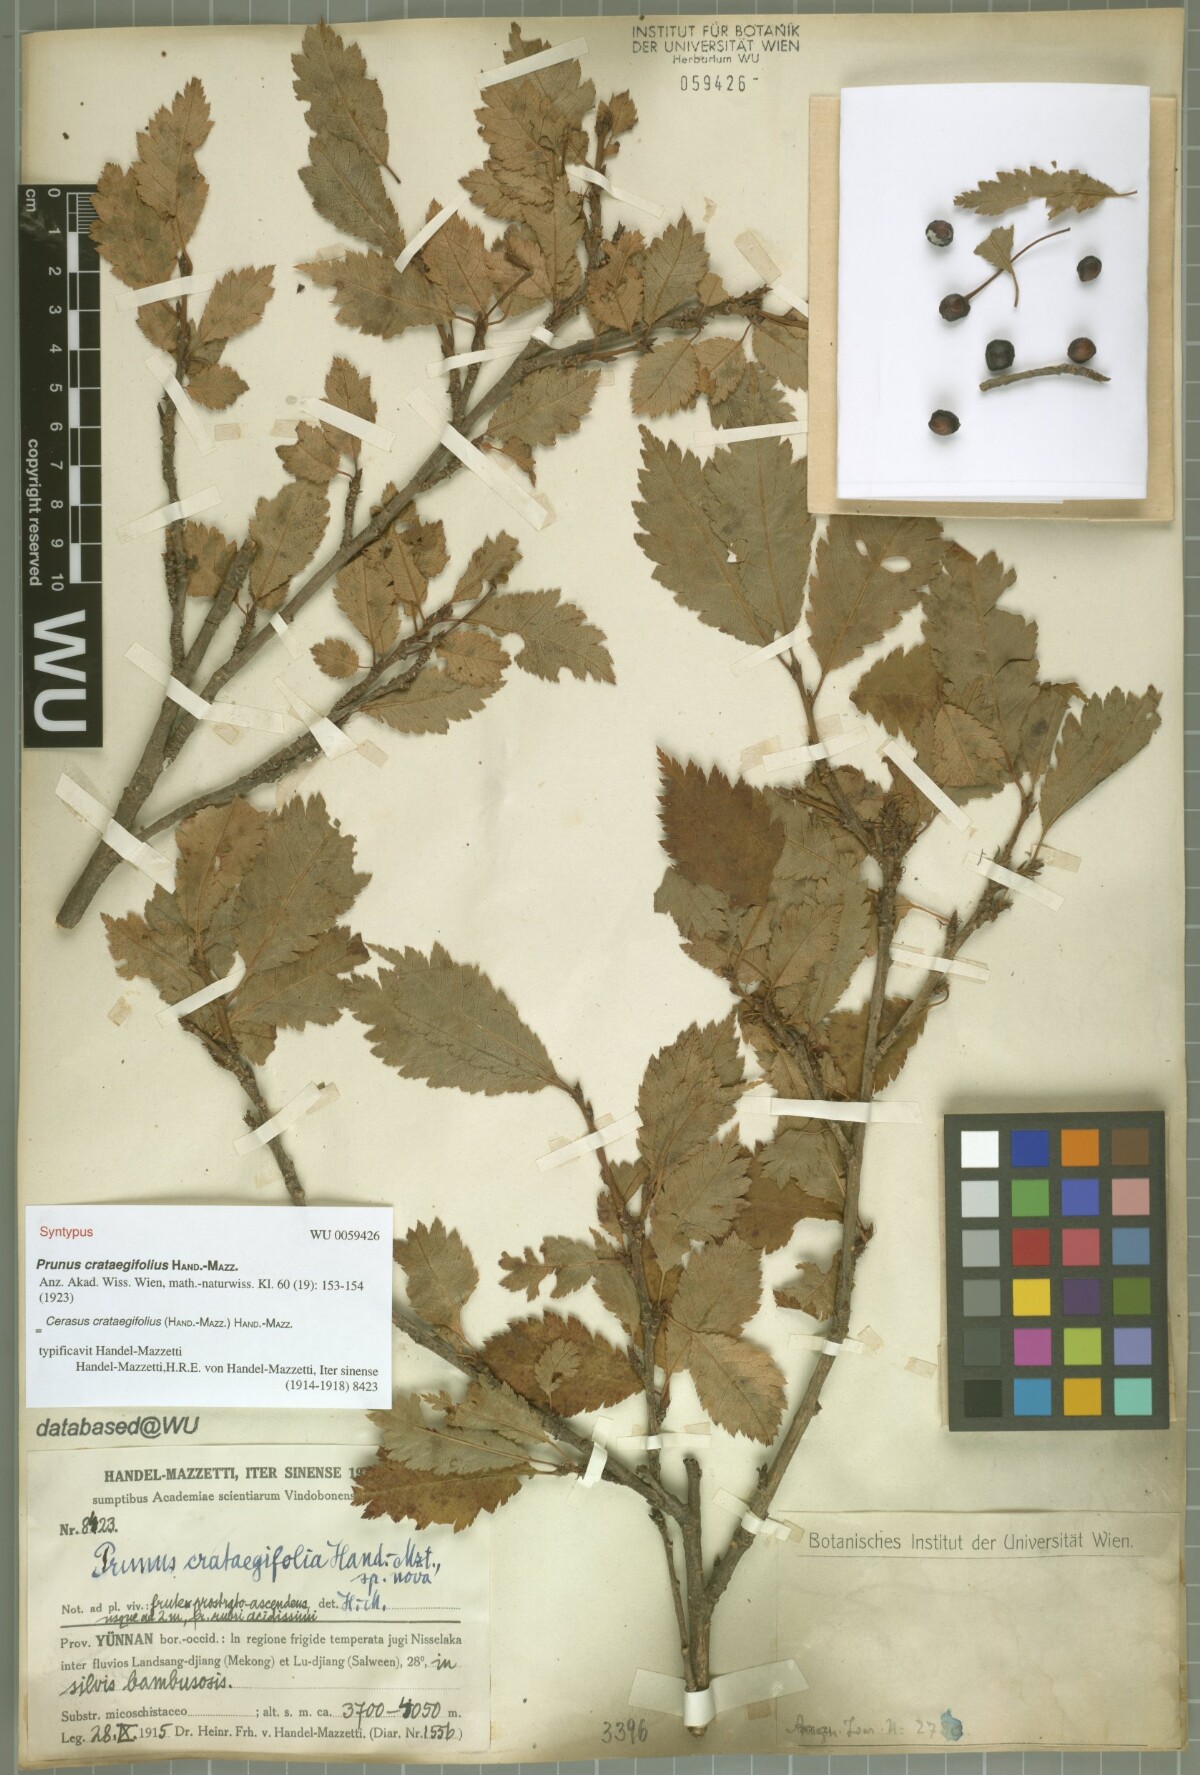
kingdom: Plantae
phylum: Tracheophyta
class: Magnoliopsida
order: Rosales
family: Rosaceae
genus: Prunus
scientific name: Prunus crataegifolia
